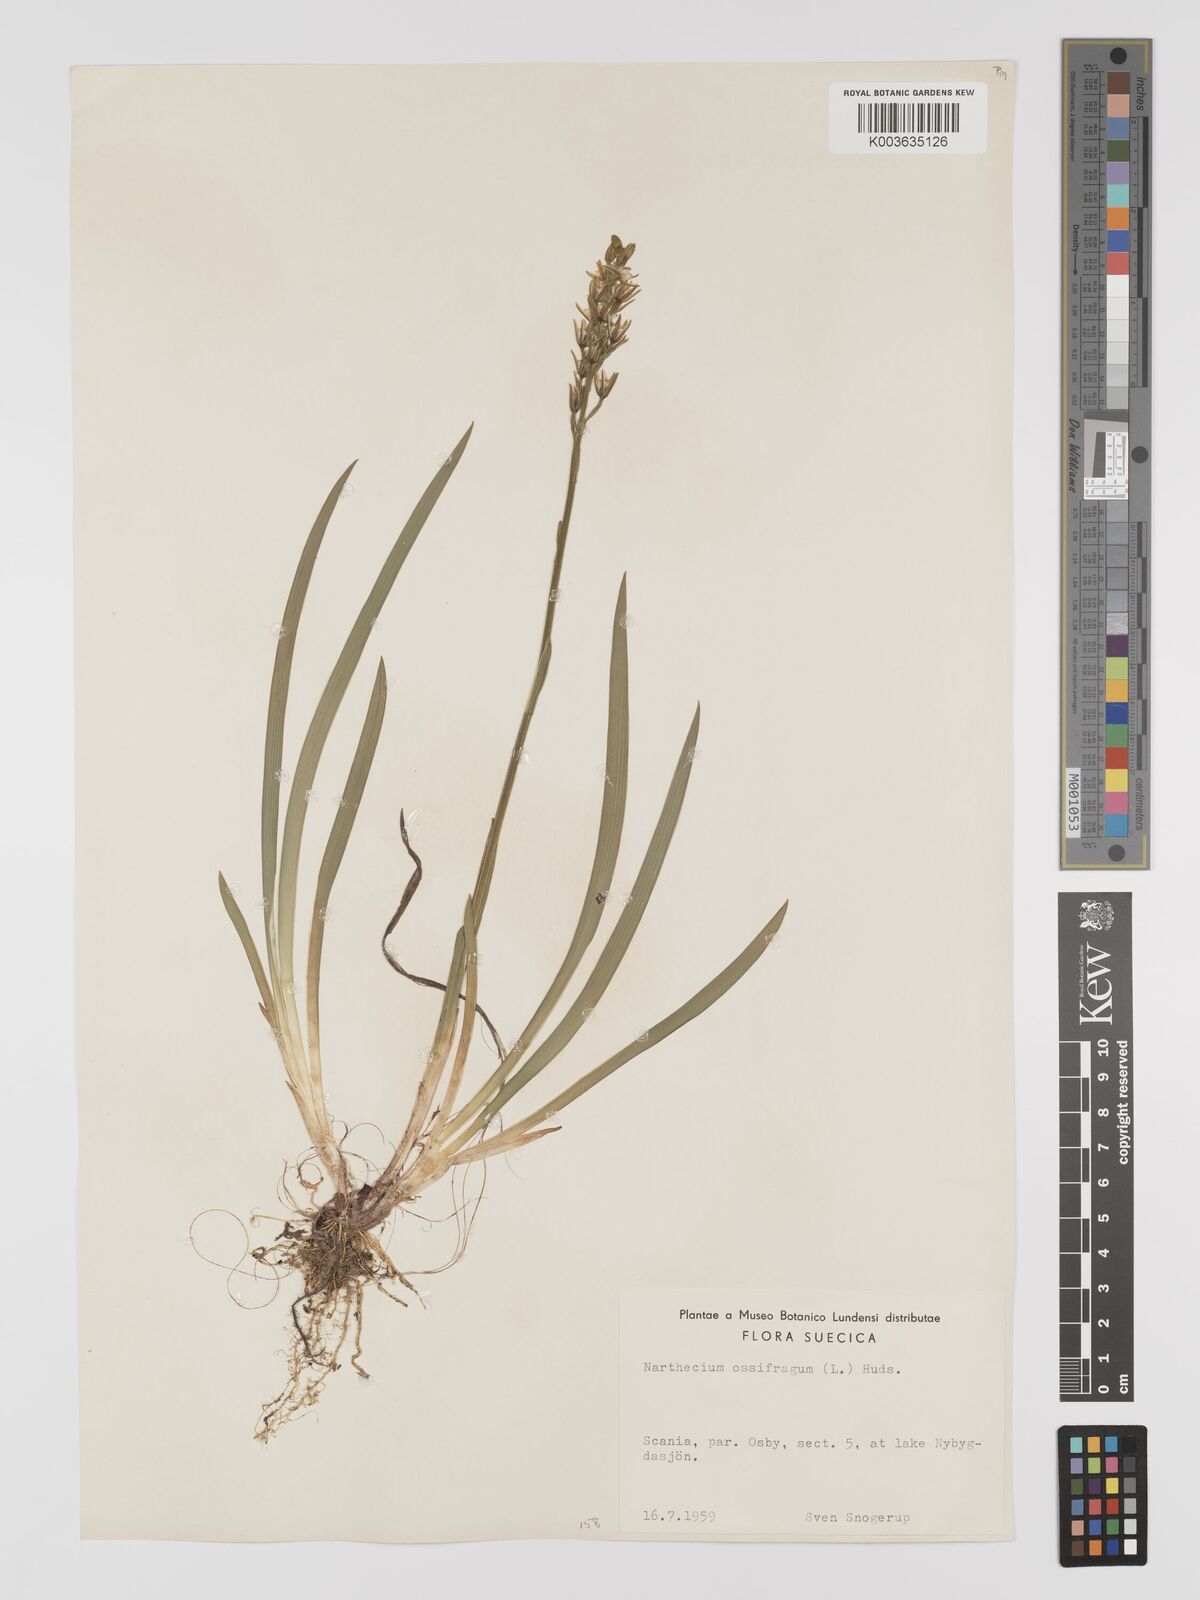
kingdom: Plantae
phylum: Tracheophyta
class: Liliopsida
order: Dioscoreales
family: Nartheciaceae
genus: Narthecium
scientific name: Narthecium ossifragum
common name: Bog asphodel
